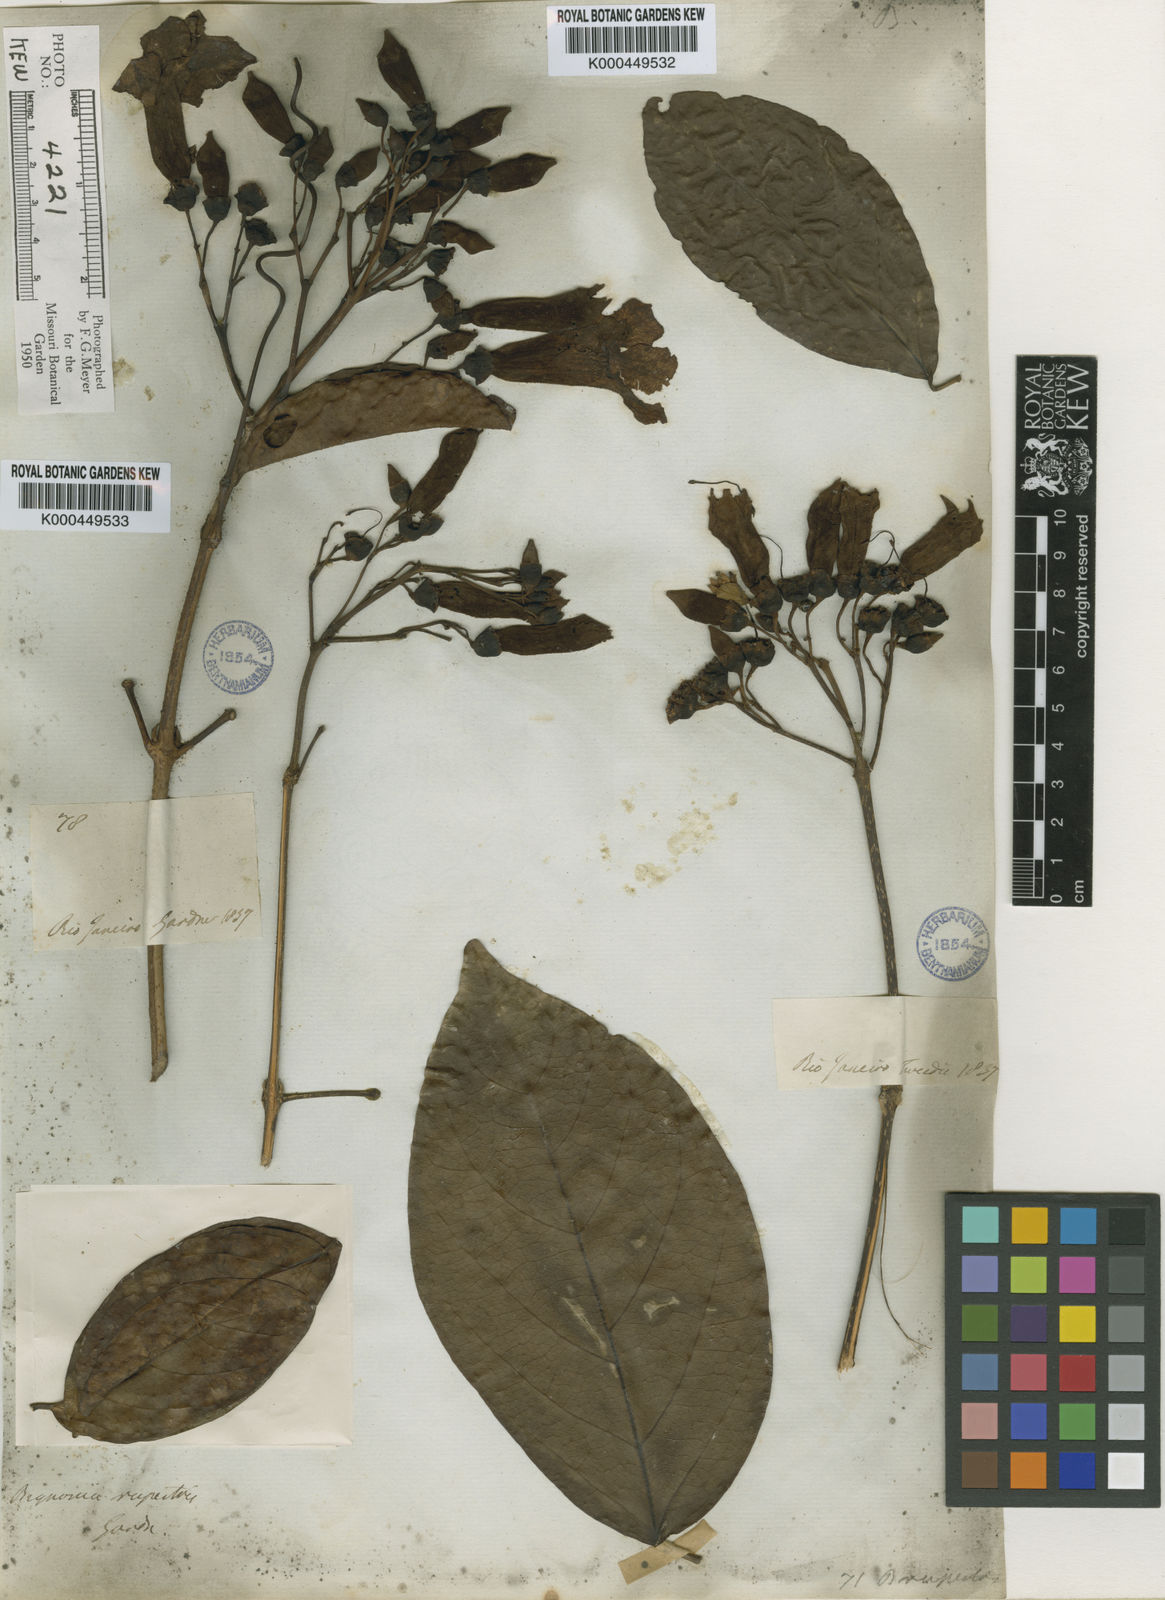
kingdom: Plantae
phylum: Tracheophyta
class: Magnoliopsida
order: Lamiales
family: Bignoniaceae
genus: Tanaecium
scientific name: Tanaecium pyramidatum
